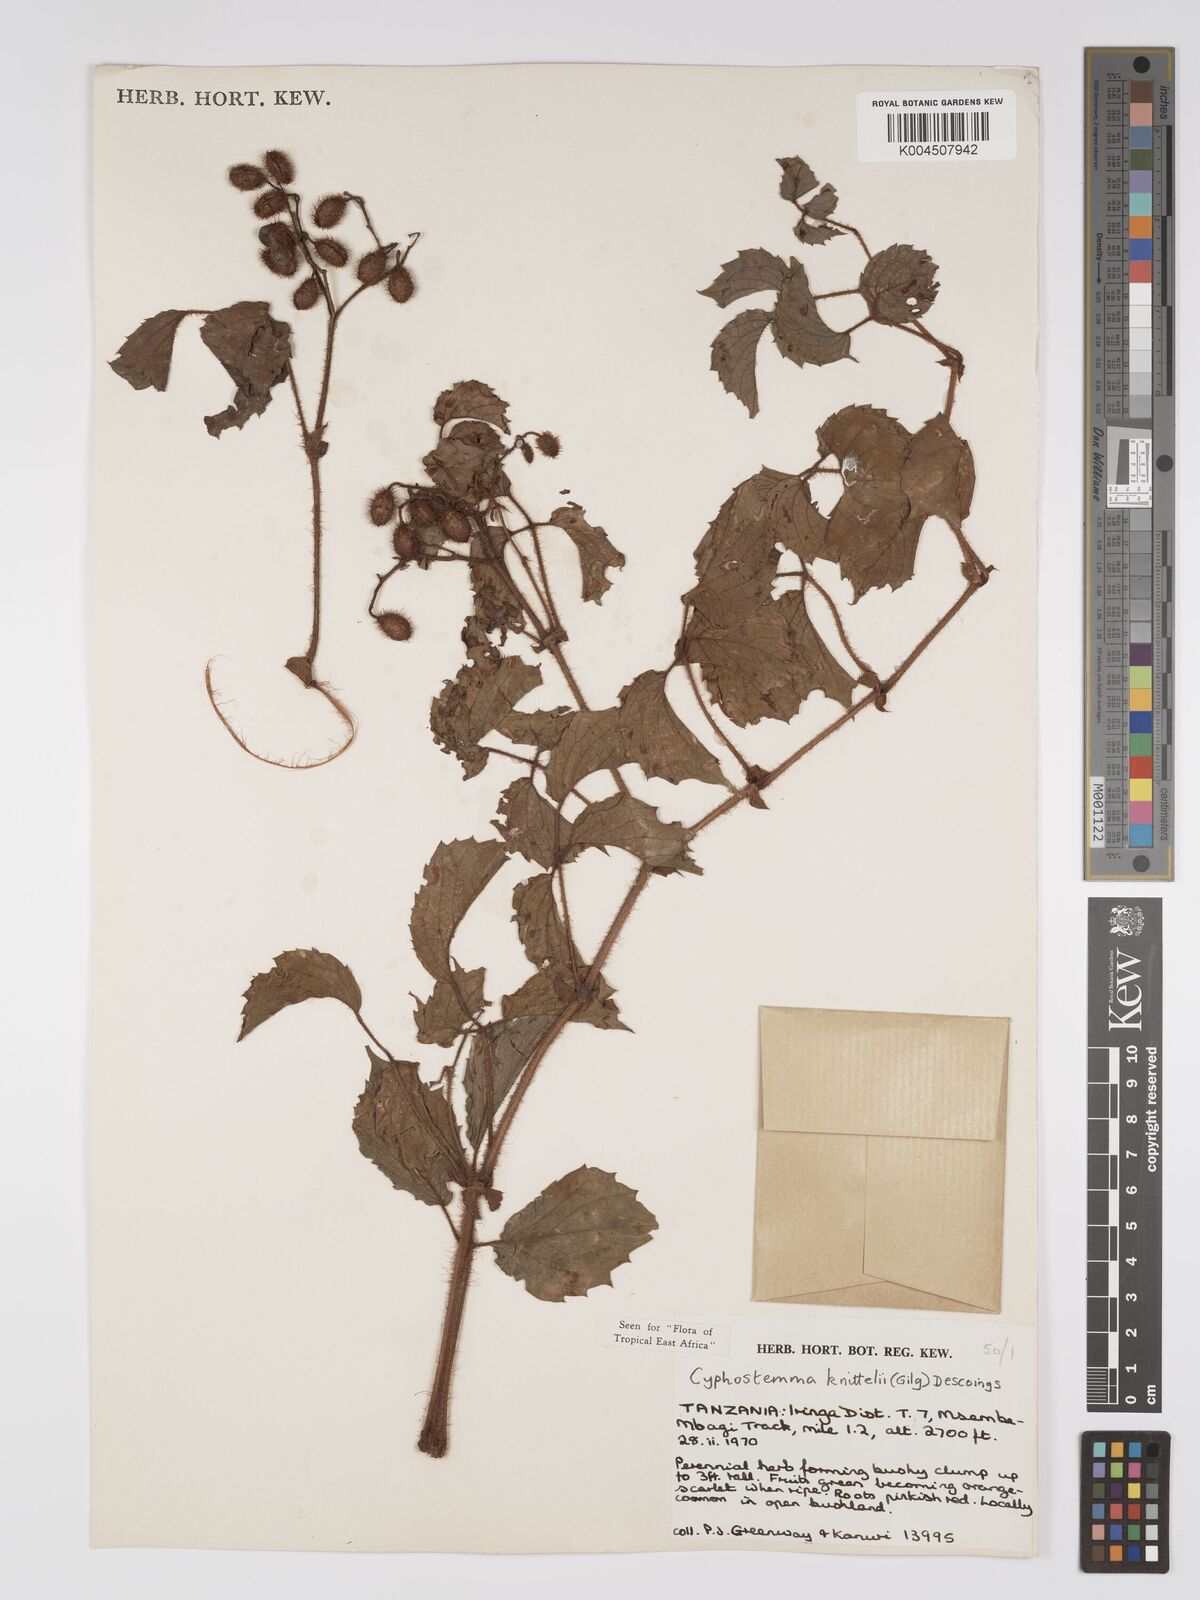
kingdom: Plantae
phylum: Tracheophyta
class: Magnoliopsida
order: Vitales
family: Vitaceae
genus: Cyphostemma
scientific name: Cyphostemma knittelii
